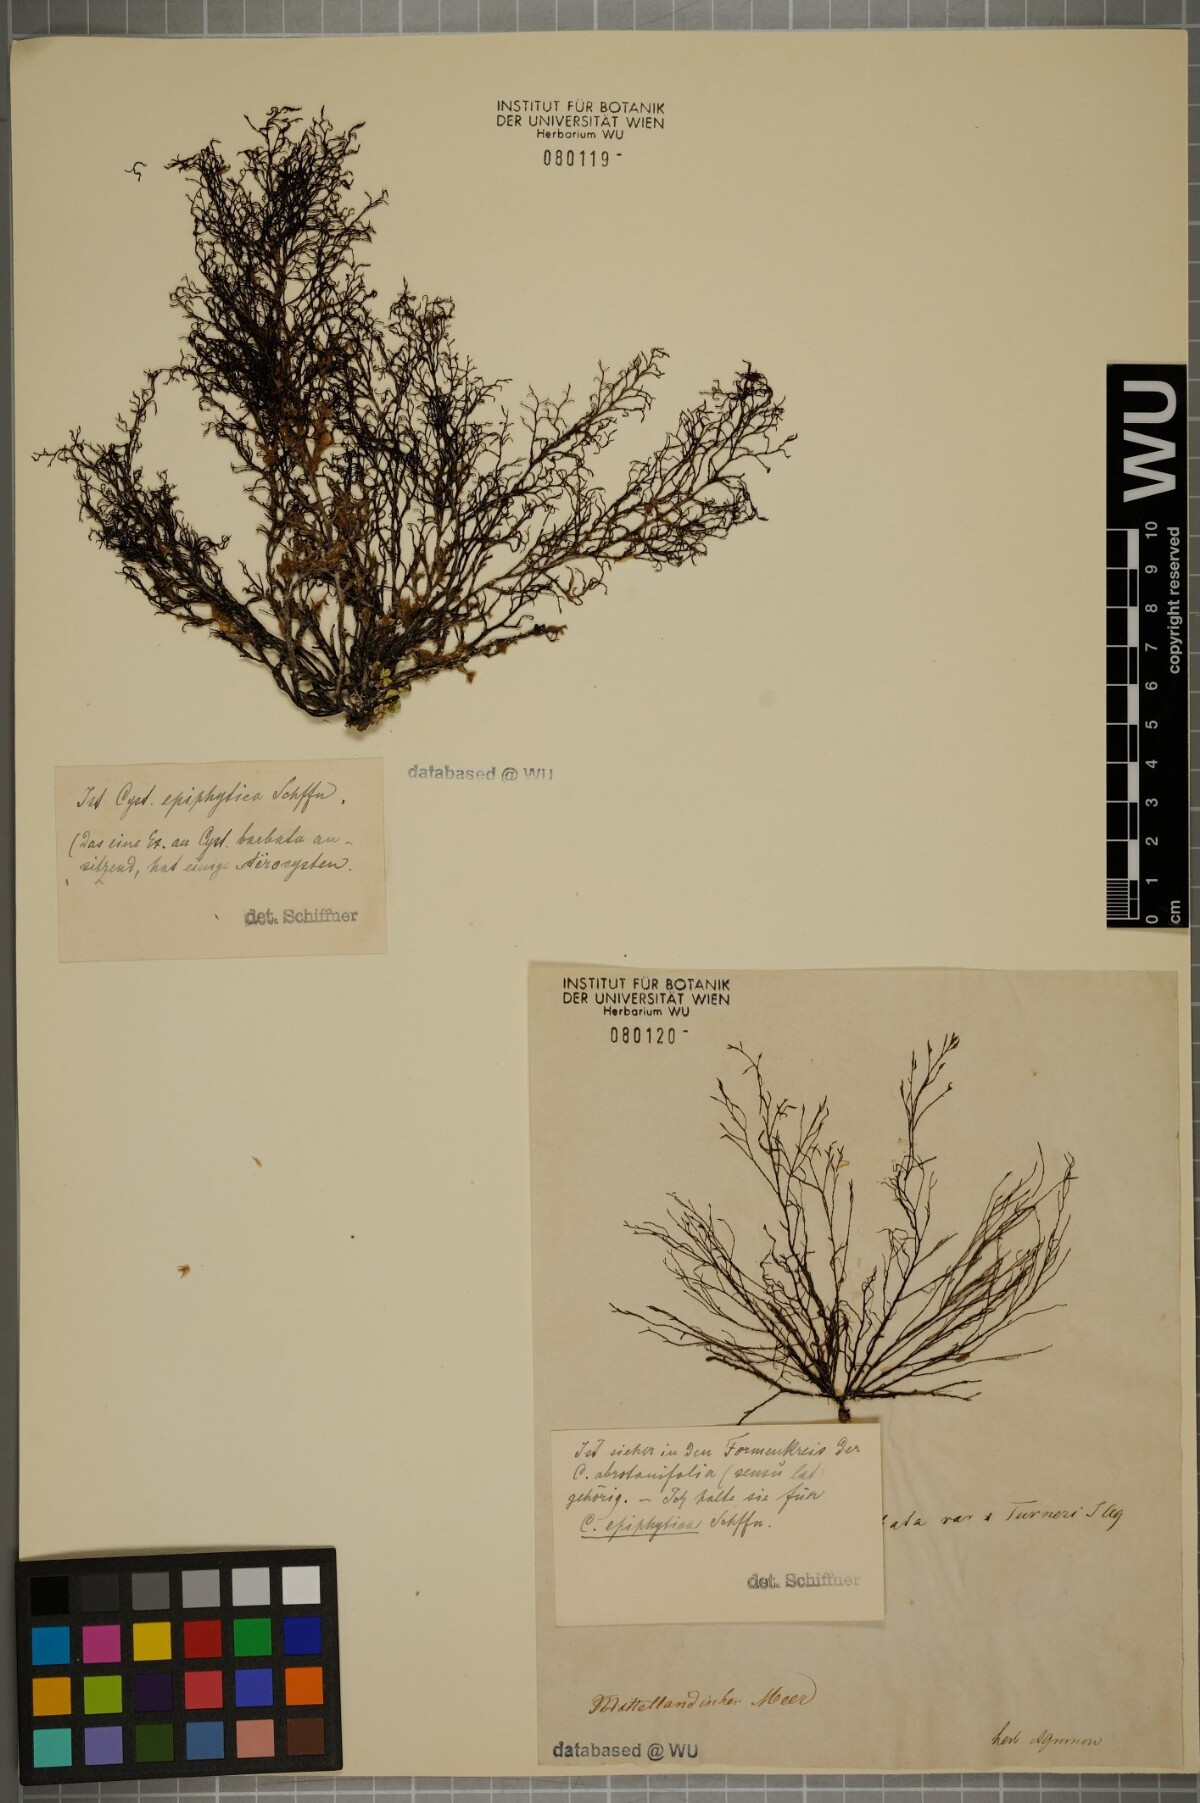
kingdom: Chromista
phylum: Ochrophyta
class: Phaeophyceae
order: Fucales
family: Sargassaceae
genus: Cystoseira
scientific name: Cystoseira humilis
